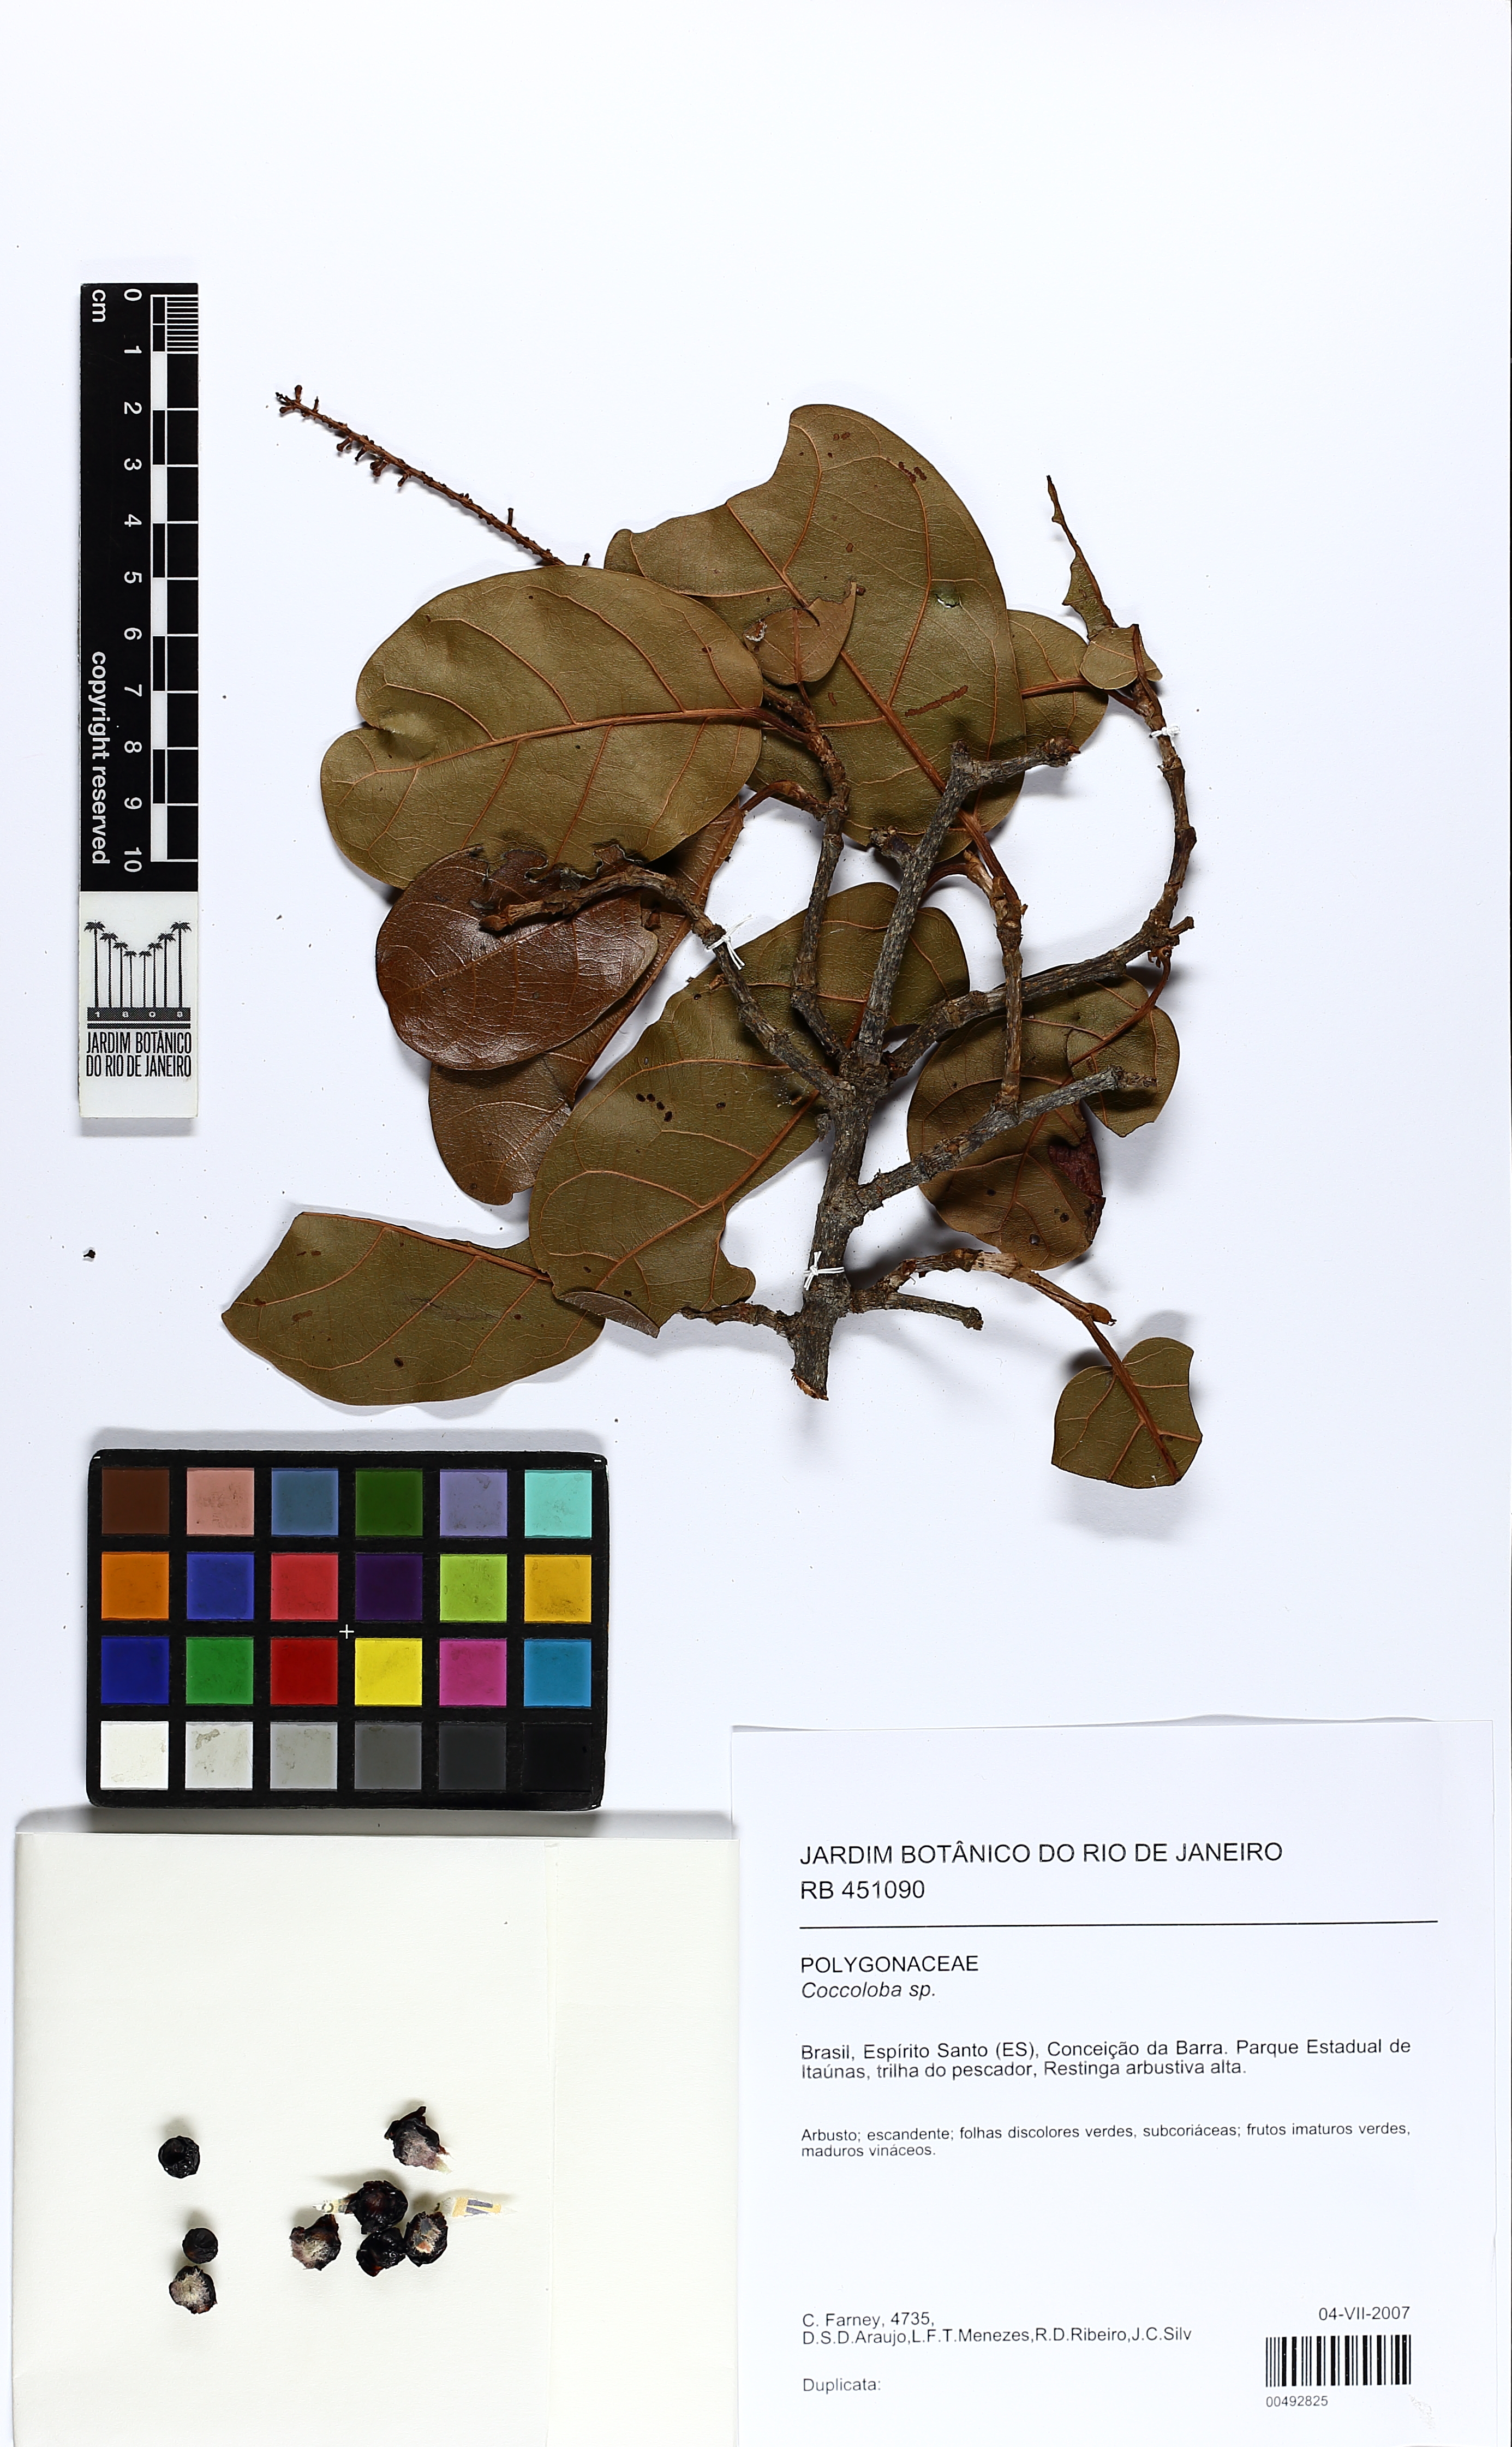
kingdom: Plantae
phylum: Tracheophyta
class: Magnoliopsida
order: Caryophyllales
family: Polygonaceae
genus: Coccoloba
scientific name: Coccoloba
